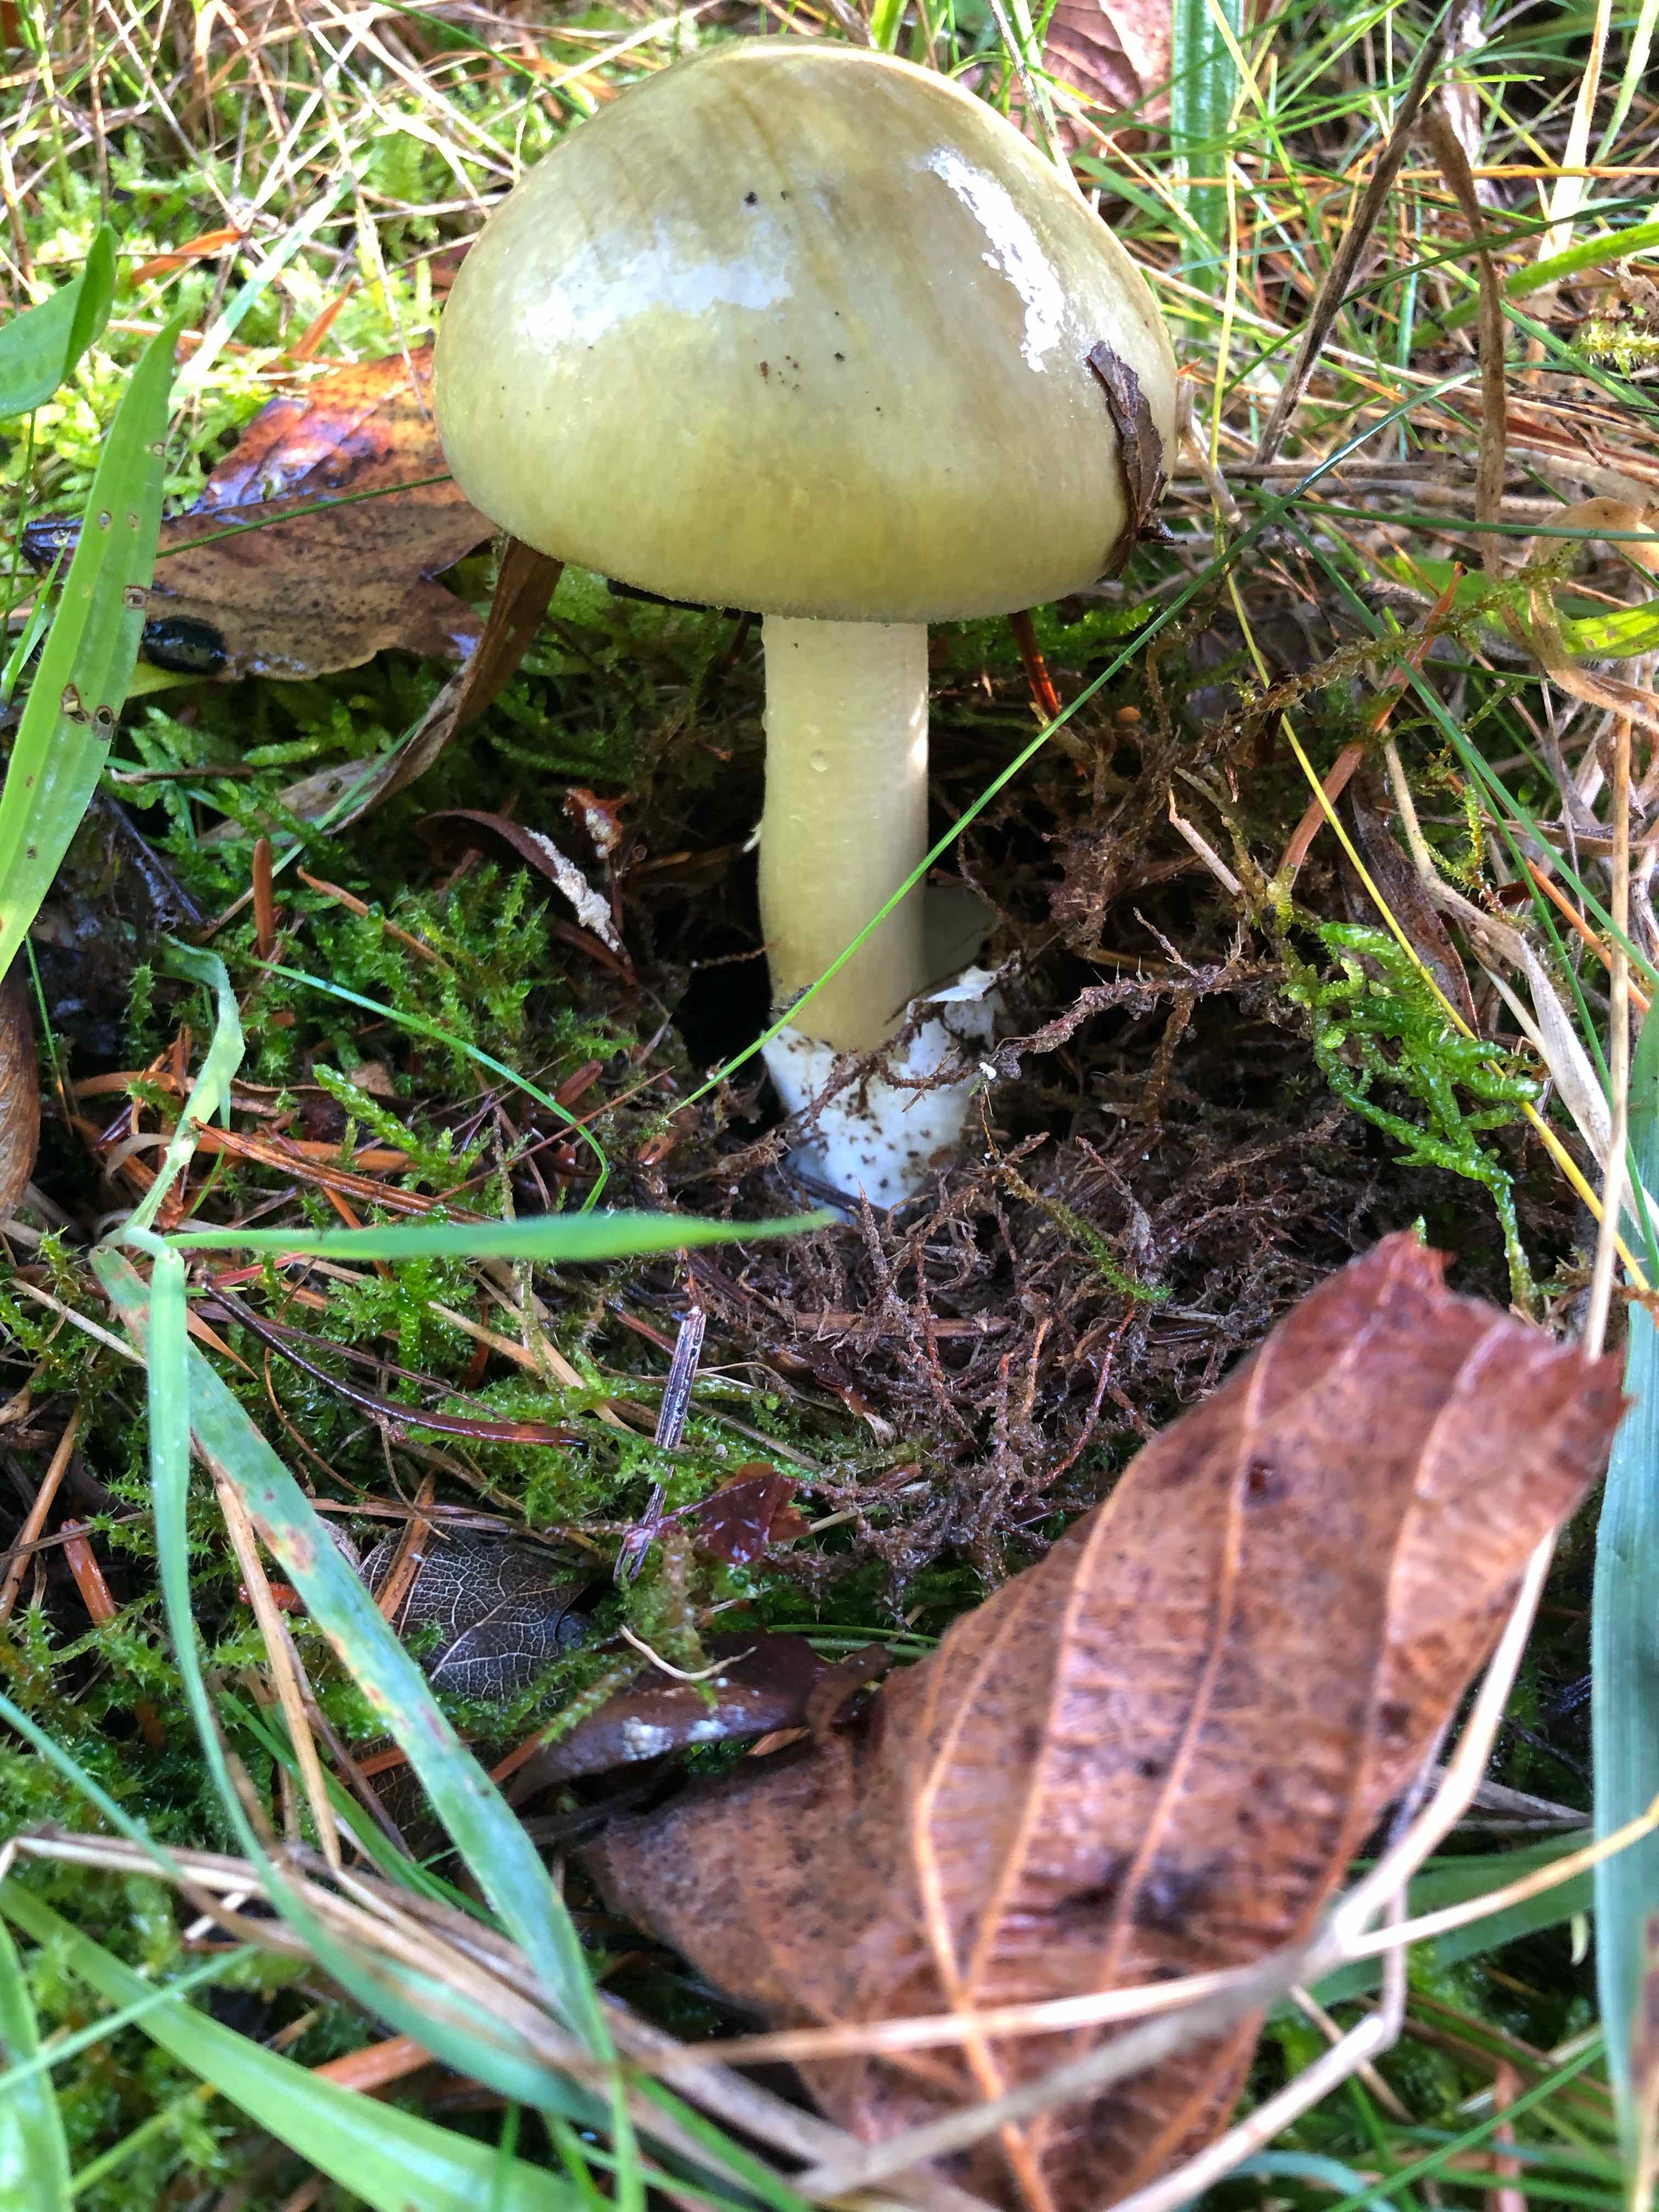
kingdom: Fungi
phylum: Basidiomycota
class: Agaricomycetes
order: Agaricales
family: Amanitaceae
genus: Amanita
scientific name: Amanita phalloides
